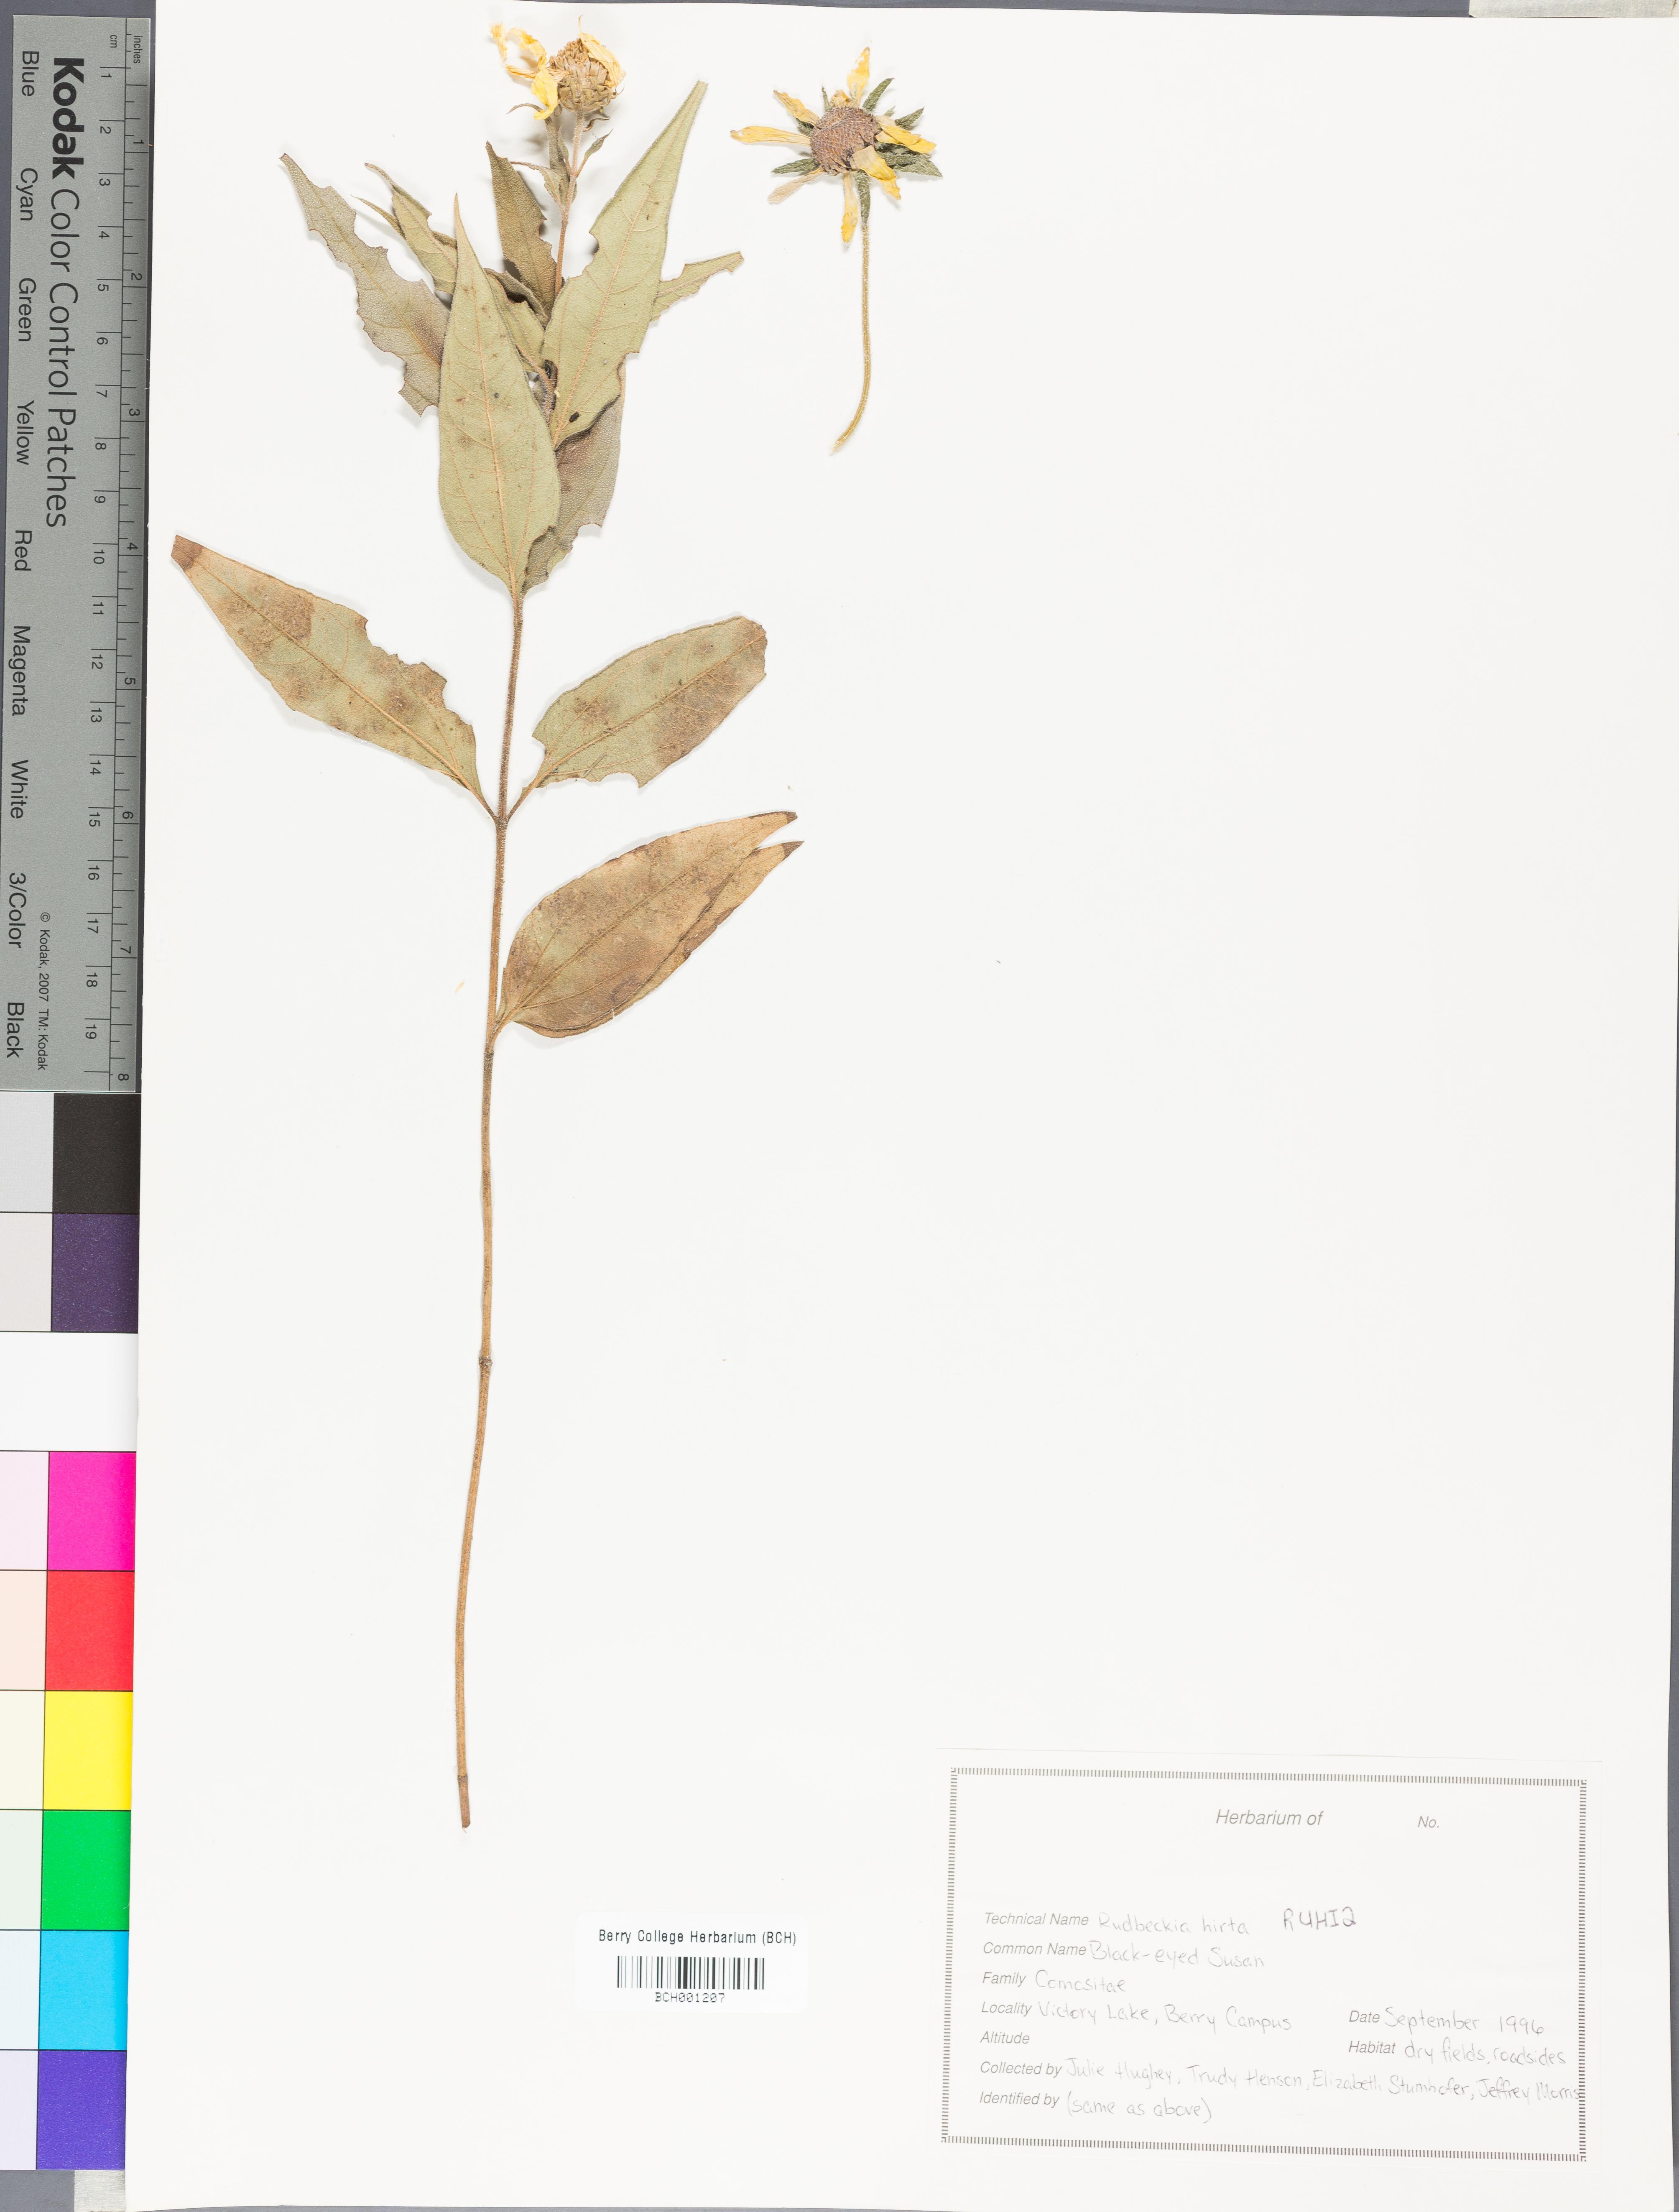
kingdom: Plantae
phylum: Tracheophyta
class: Magnoliopsida
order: Asterales
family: Asteraceae
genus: Rudbeckia
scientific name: Rudbeckia hirta
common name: Black-eyed-susan
